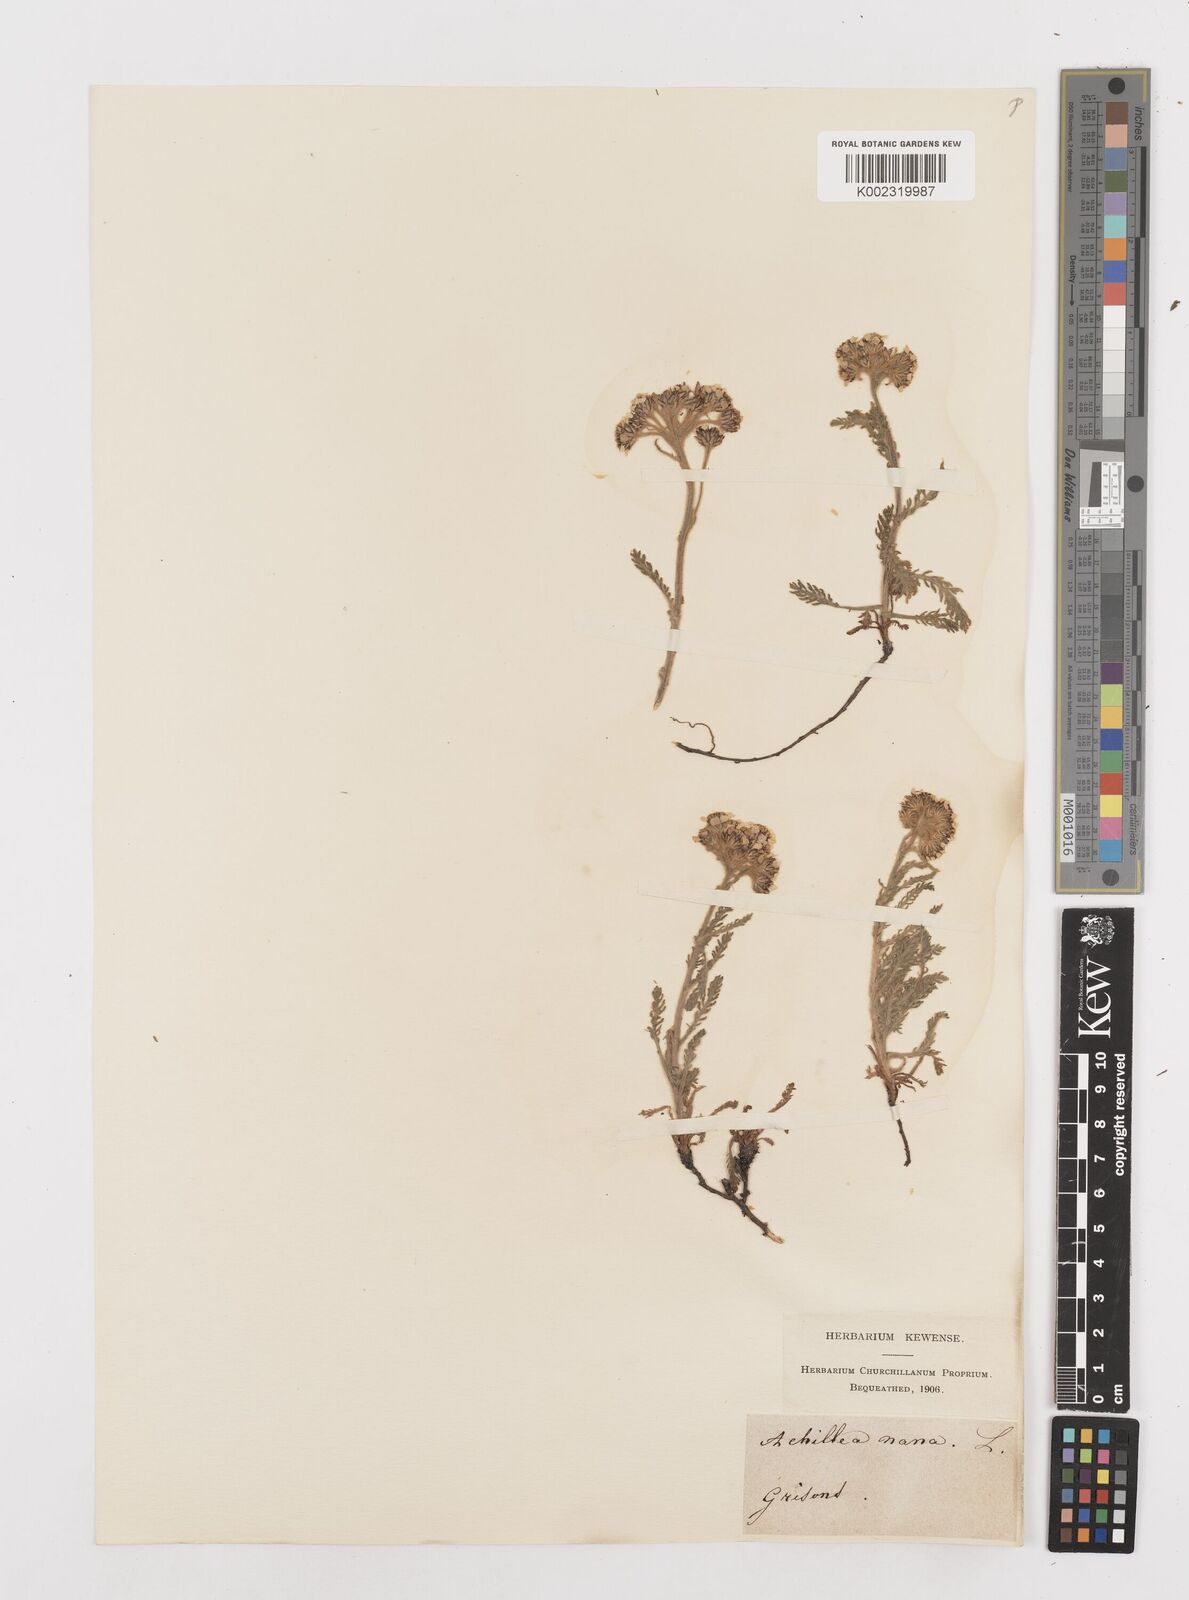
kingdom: Plantae
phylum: Tracheophyta
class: Magnoliopsida
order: Asterales
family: Asteraceae
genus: Achillea
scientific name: Achillea nana
